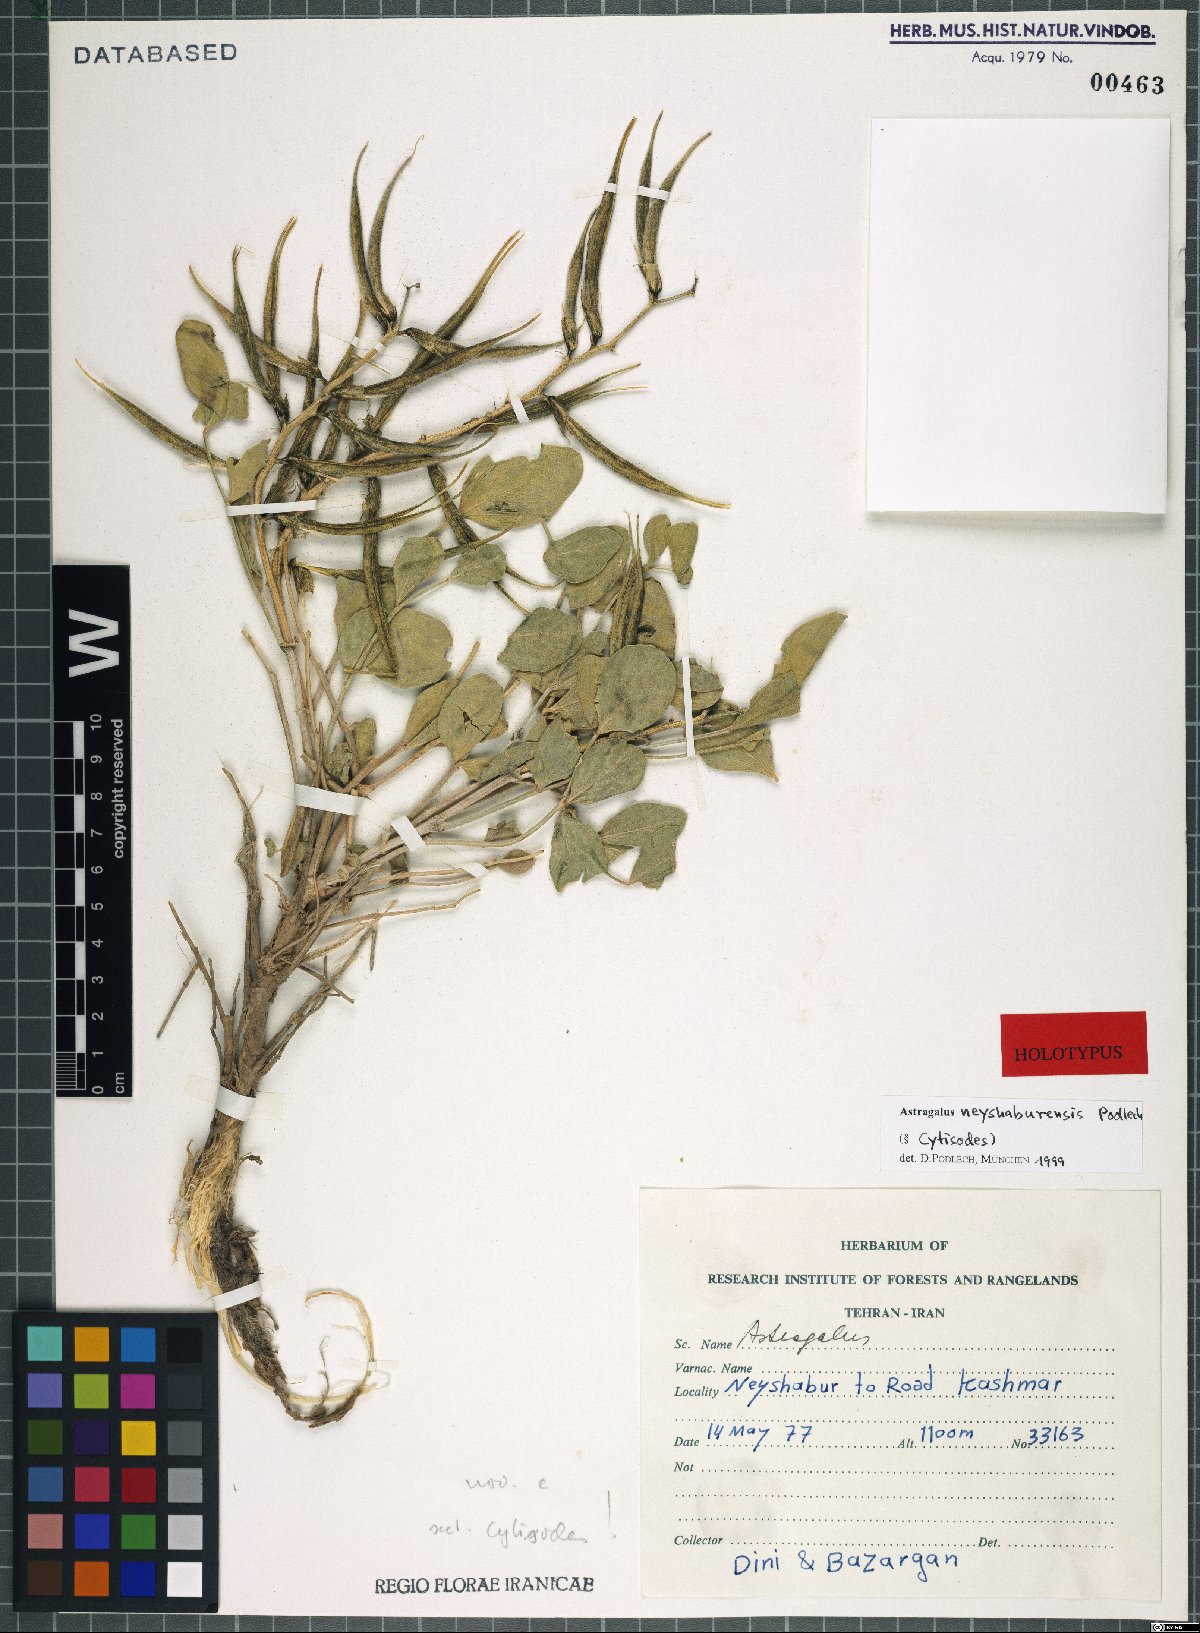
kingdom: Plantae
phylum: Tracheophyta
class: Magnoliopsida
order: Fabales
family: Fabaceae
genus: Astragalus
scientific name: Astragalus neyshaburensis
